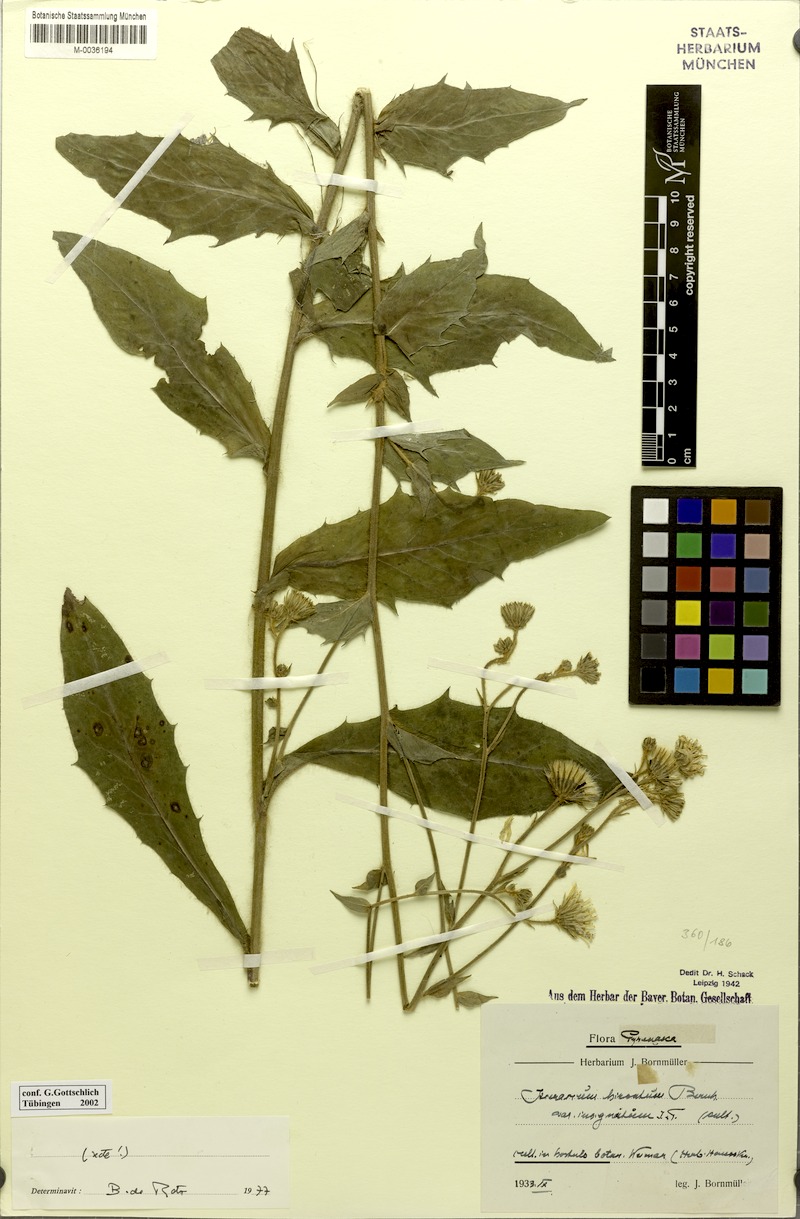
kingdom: Plantae
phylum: Tracheophyta
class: Magnoliopsida
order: Asterales
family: Asteraceae
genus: Hieracium
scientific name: Hieracium hirsutum
